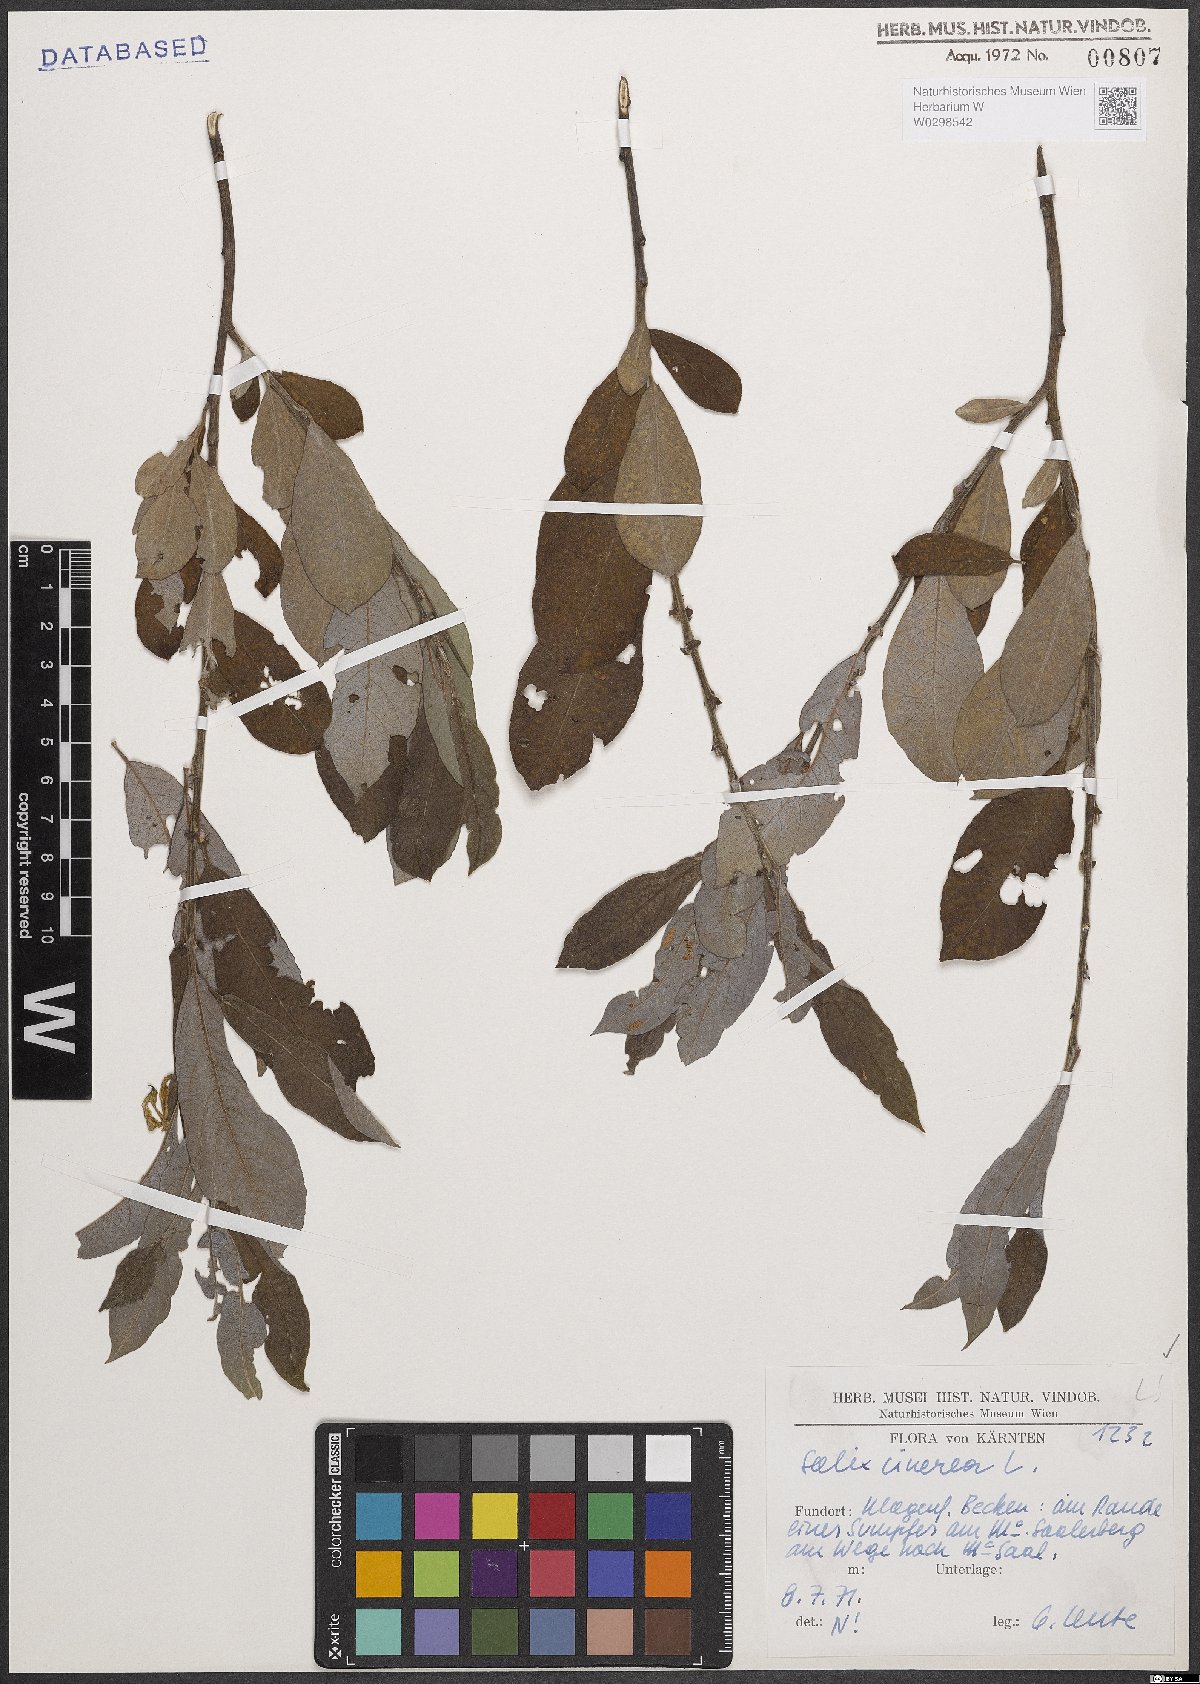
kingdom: Plantae
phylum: Tracheophyta
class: Magnoliopsida
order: Malpighiales
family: Salicaceae
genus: Salix
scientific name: Salix cinerea
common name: Common sallow
